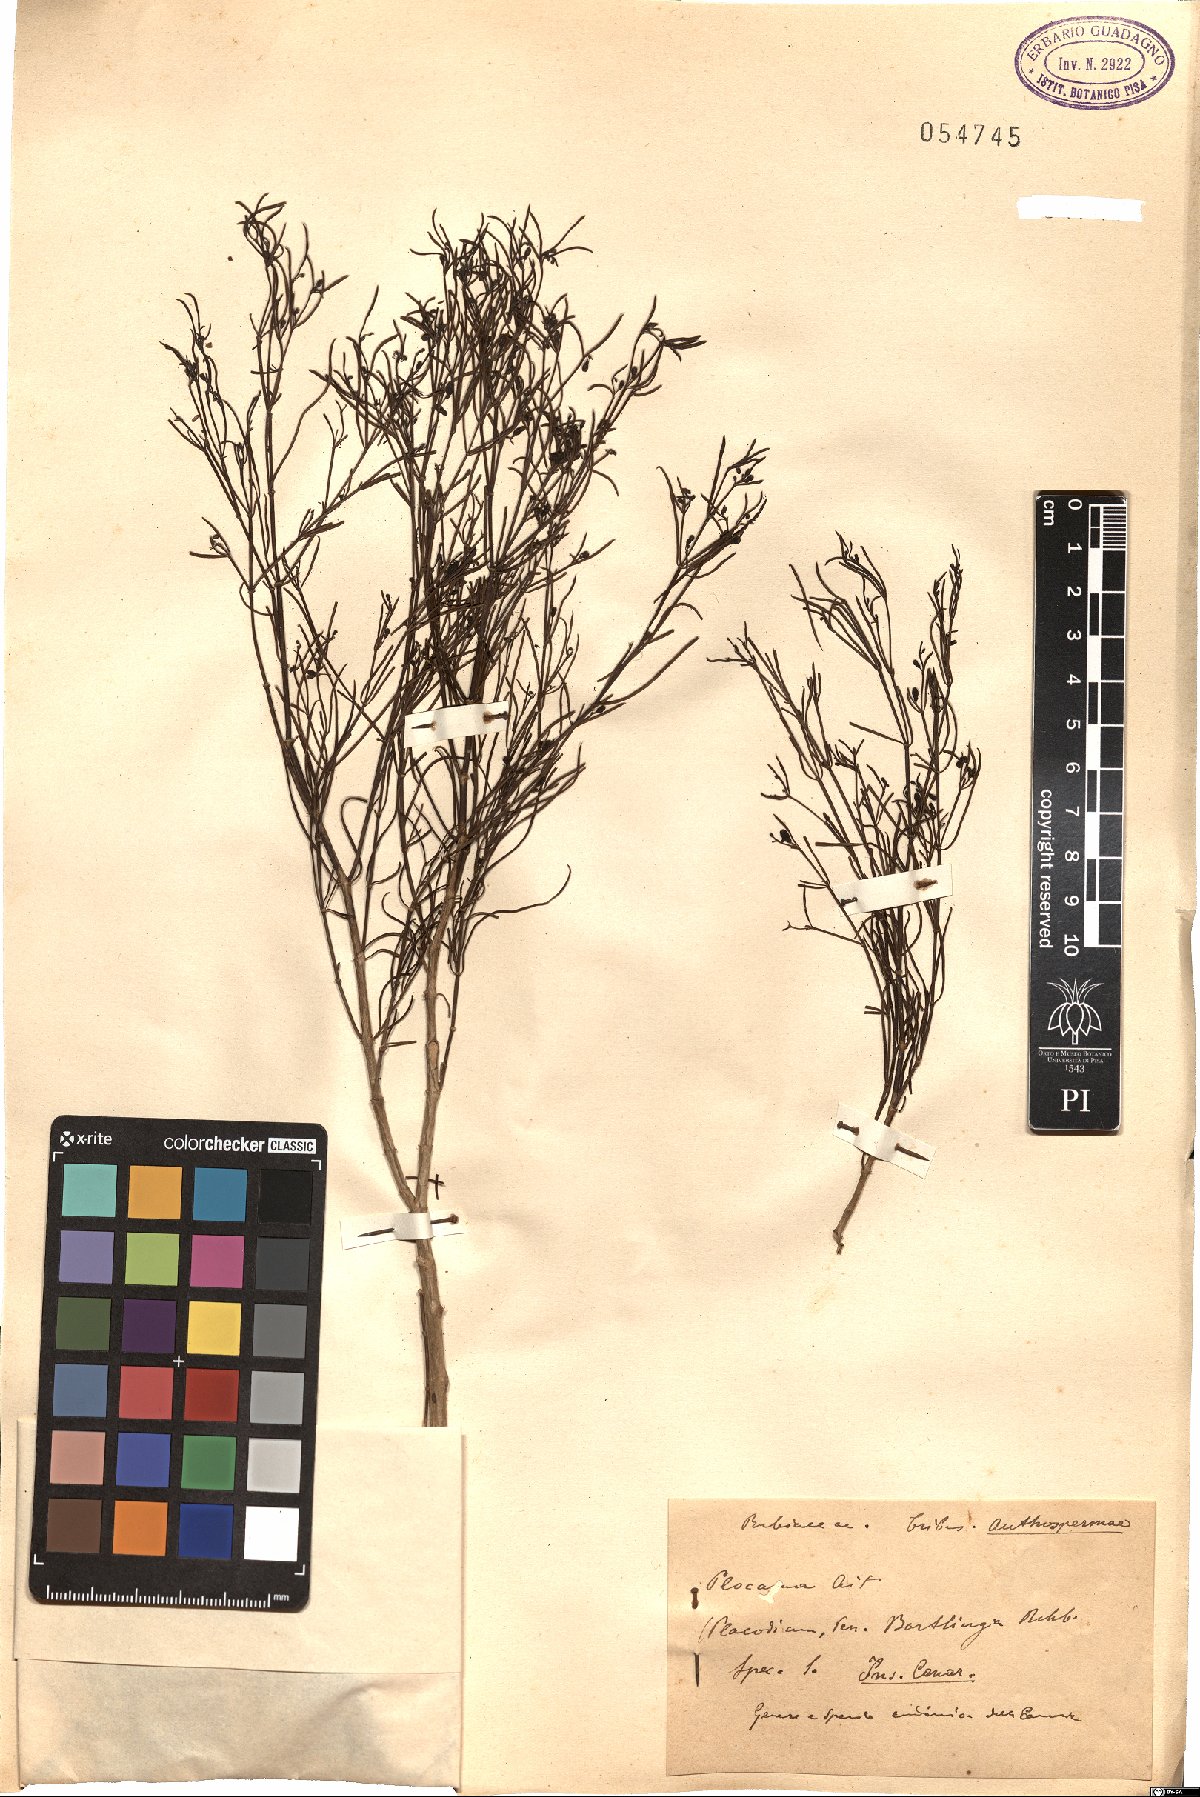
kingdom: Plantae
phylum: Tracheophyta
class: Magnoliopsida
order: Gentianales
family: Rubiaceae
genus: Plocama
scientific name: Plocama
